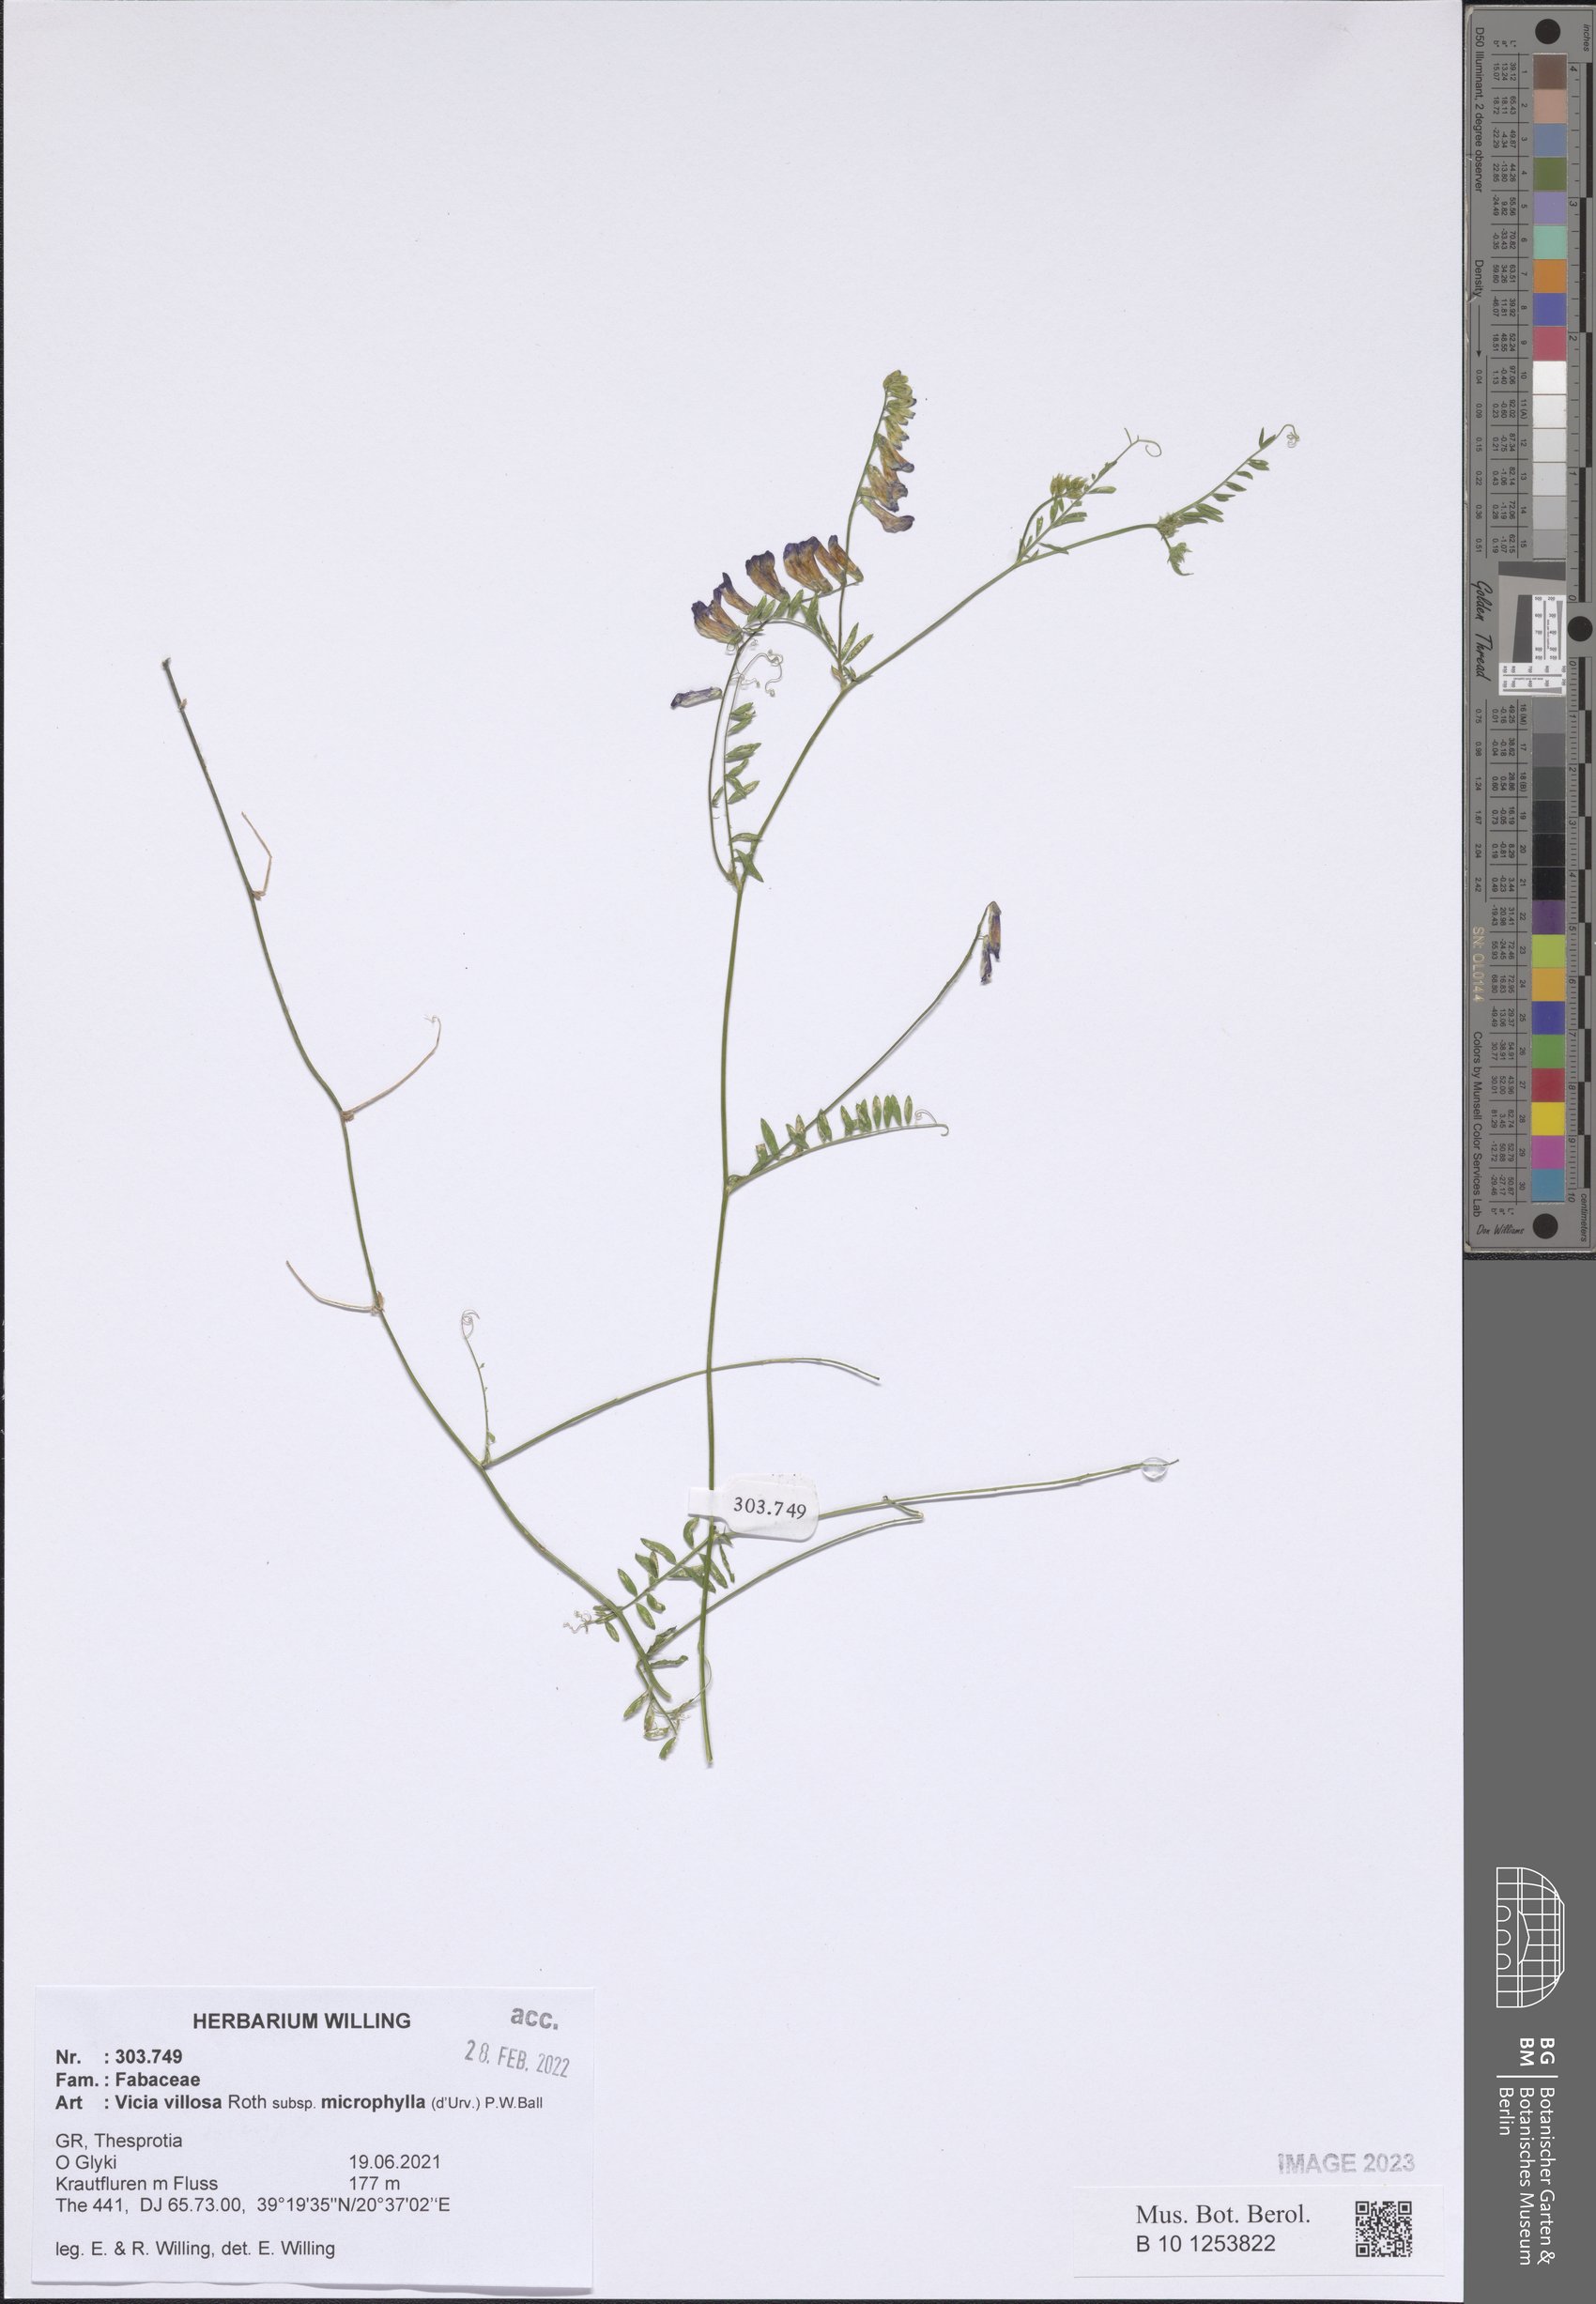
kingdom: Plantae
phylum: Tracheophyta
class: Magnoliopsida
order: Fabales
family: Fabaceae
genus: Vicia
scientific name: Vicia villosa
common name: Fodder vetch
